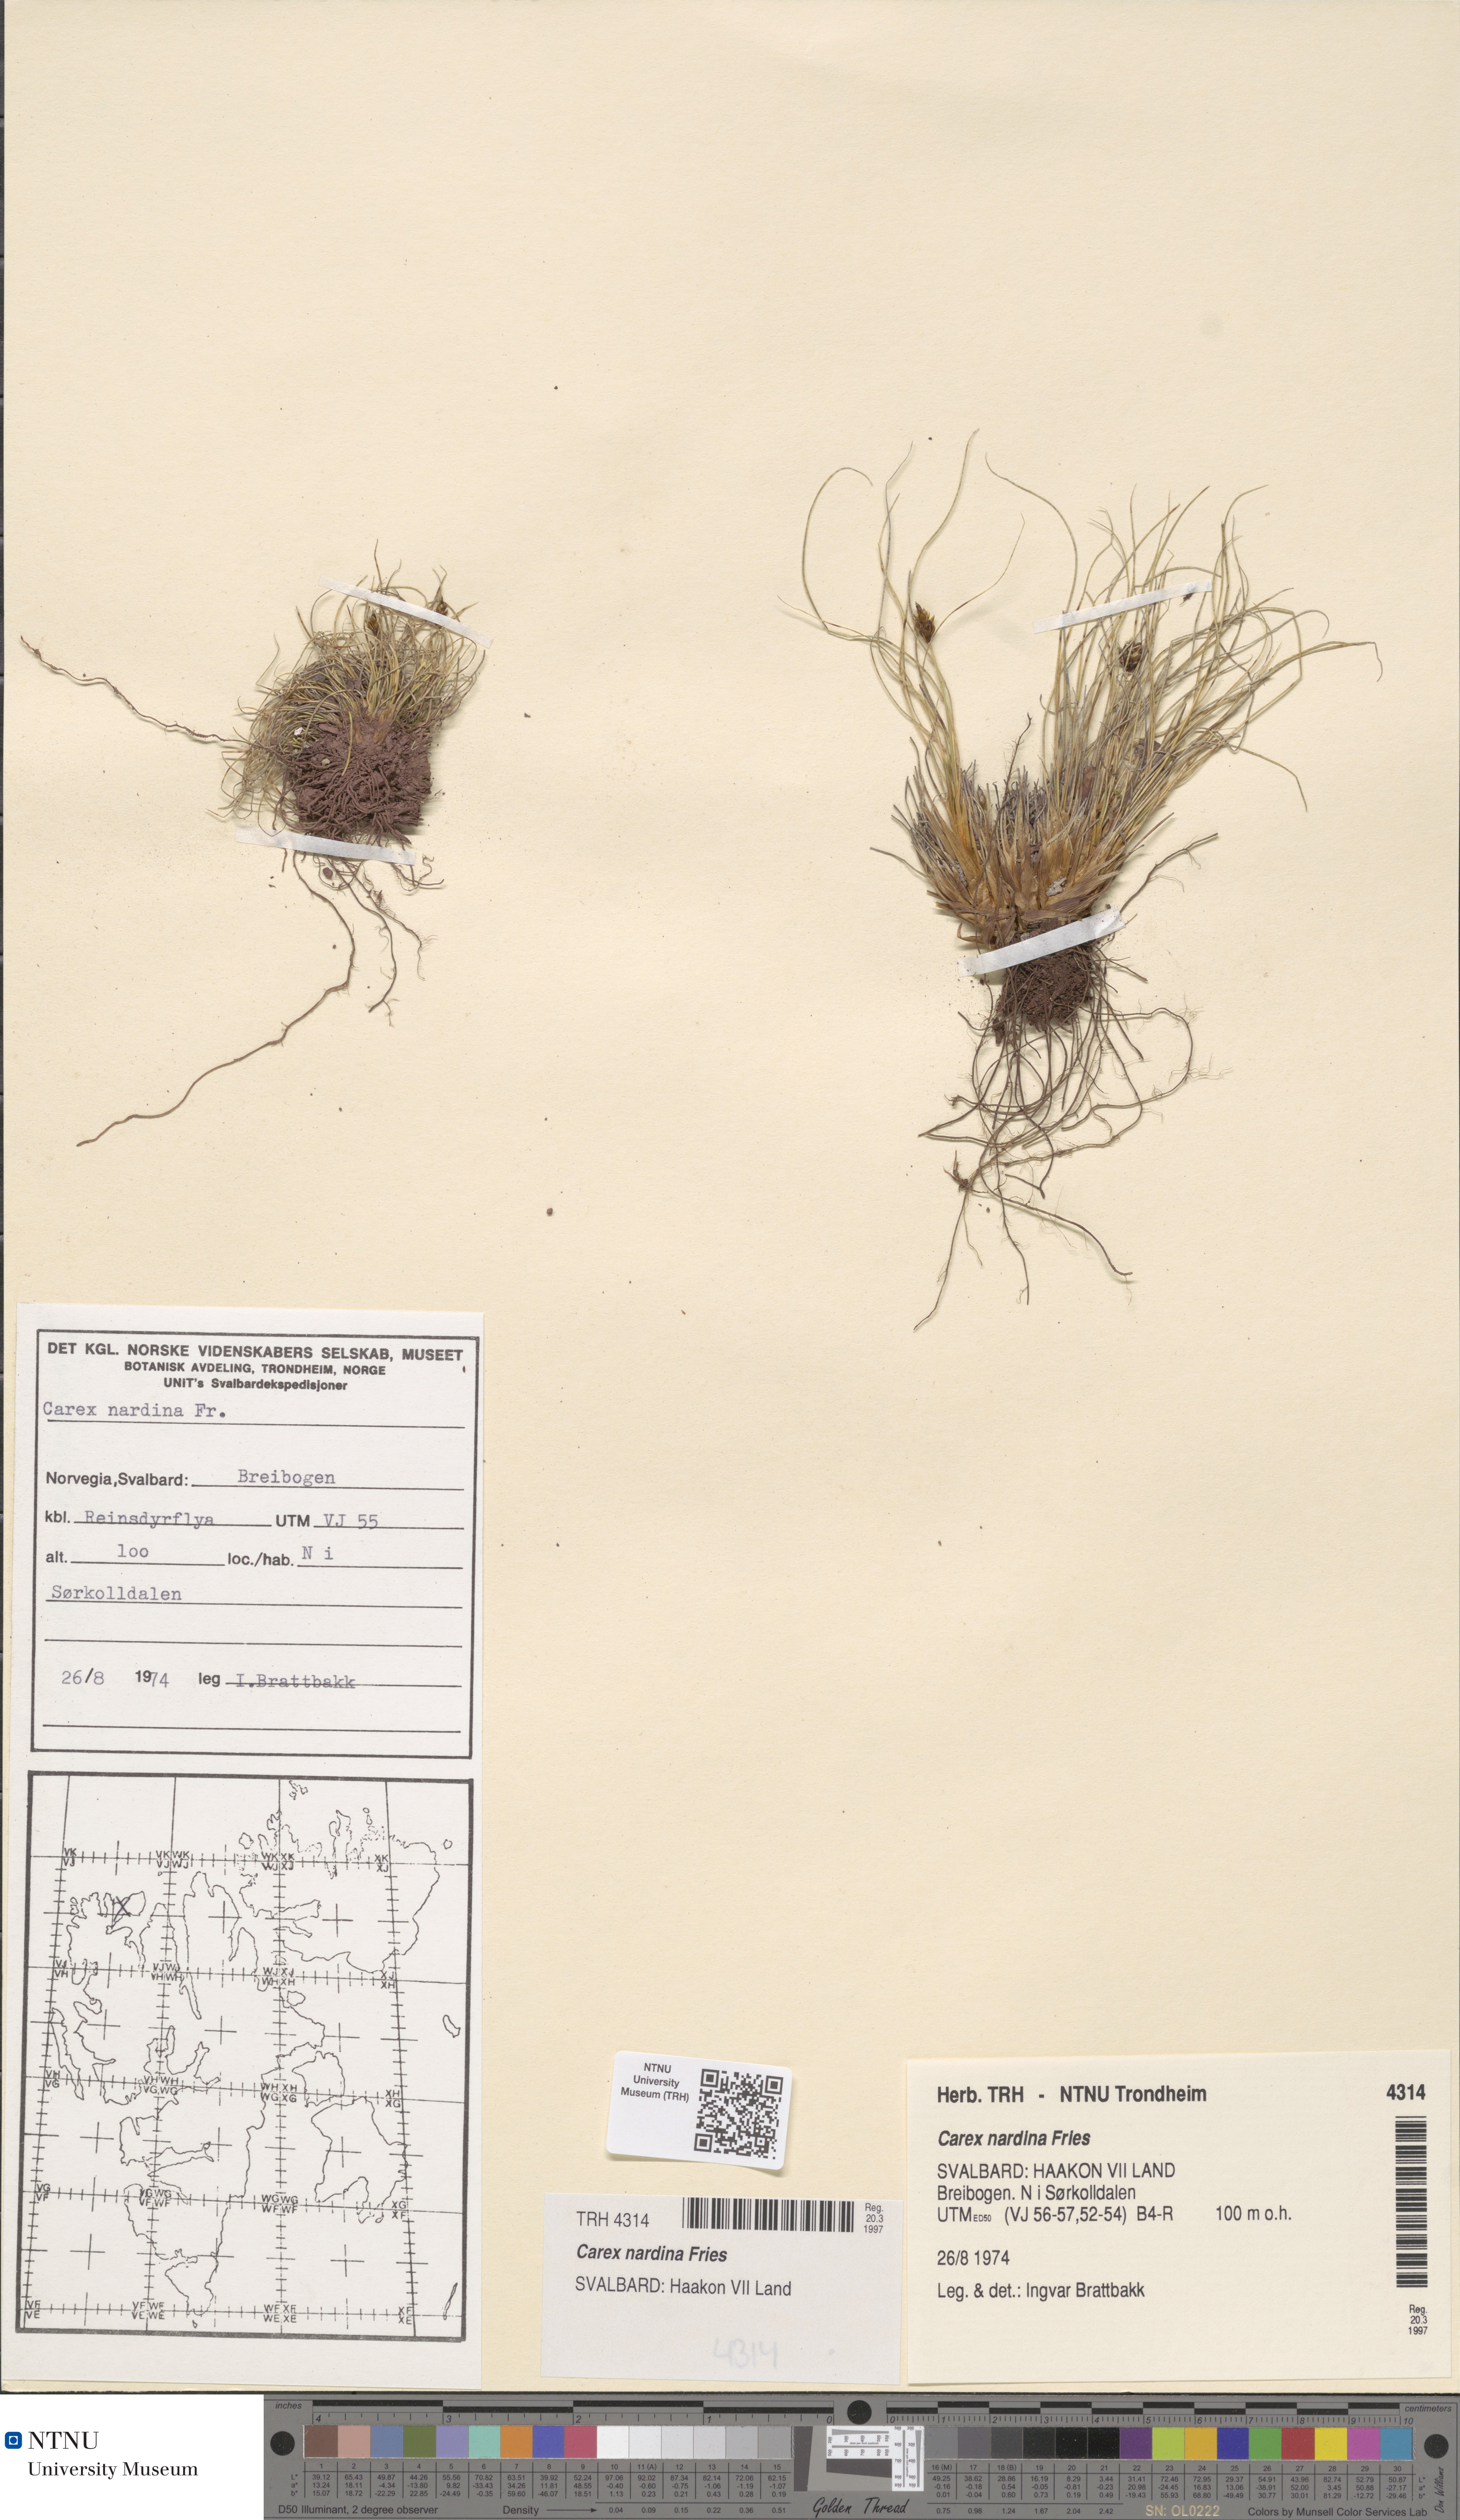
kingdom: Plantae
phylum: Tracheophyta
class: Liliopsida
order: Poales
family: Cyperaceae
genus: Carex
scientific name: Carex nardina
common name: Nard sedge
